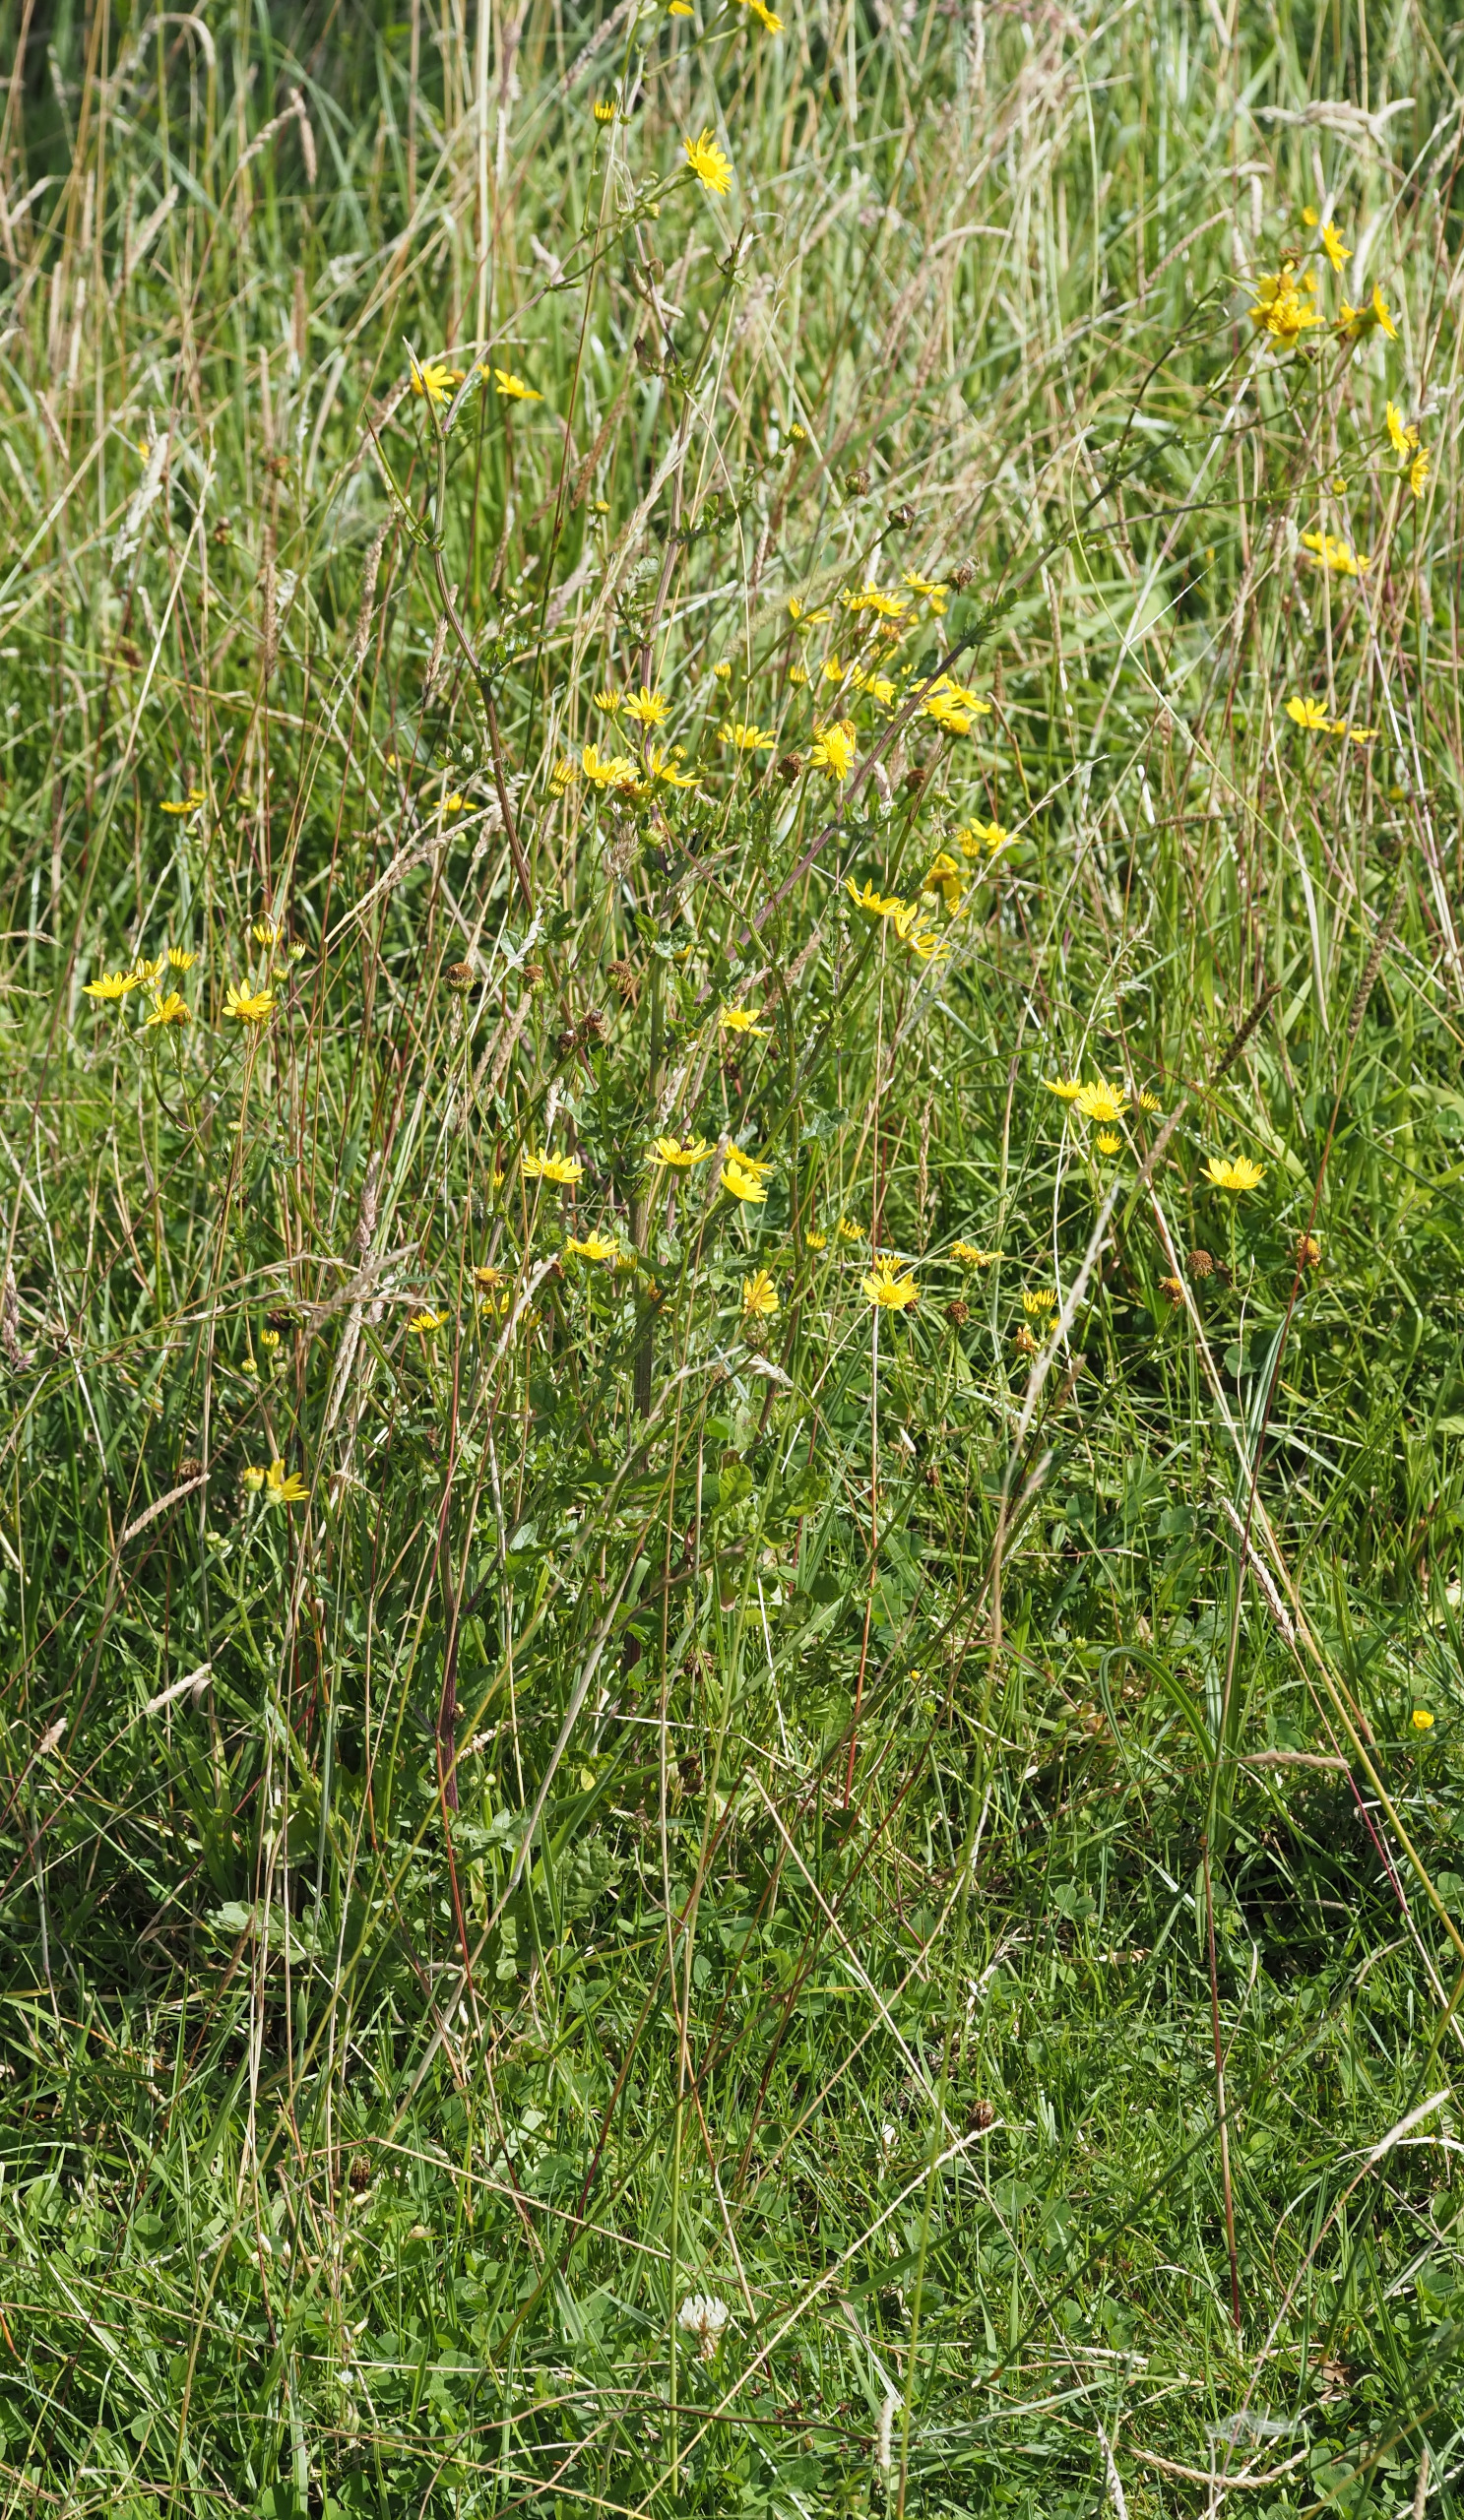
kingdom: Plantae
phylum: Tracheophyta
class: Magnoliopsida
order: Asterales
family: Asteraceae
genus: Jacobaea
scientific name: Jacobaea aquatica
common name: Vand-brandbæger
